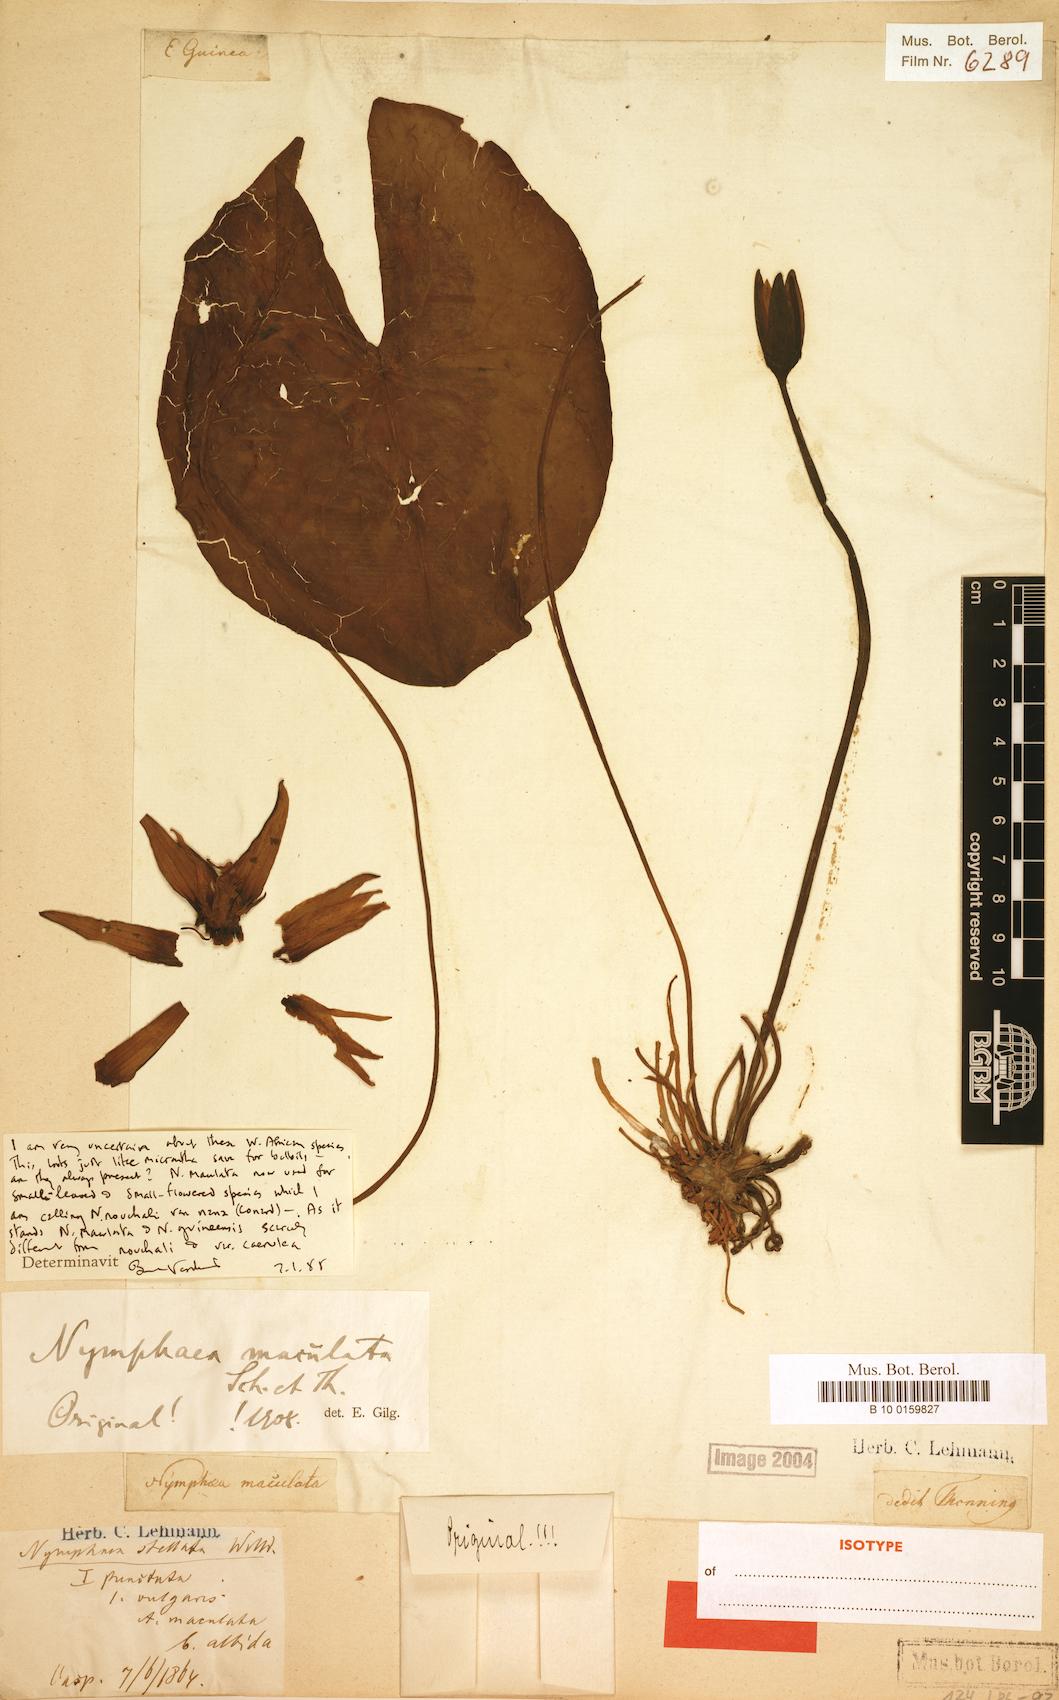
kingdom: Plantae
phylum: Tracheophyta
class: Magnoliopsida
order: Nymphaeales
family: Nymphaeaceae
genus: Nymphaea
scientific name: Nymphaea maculata
